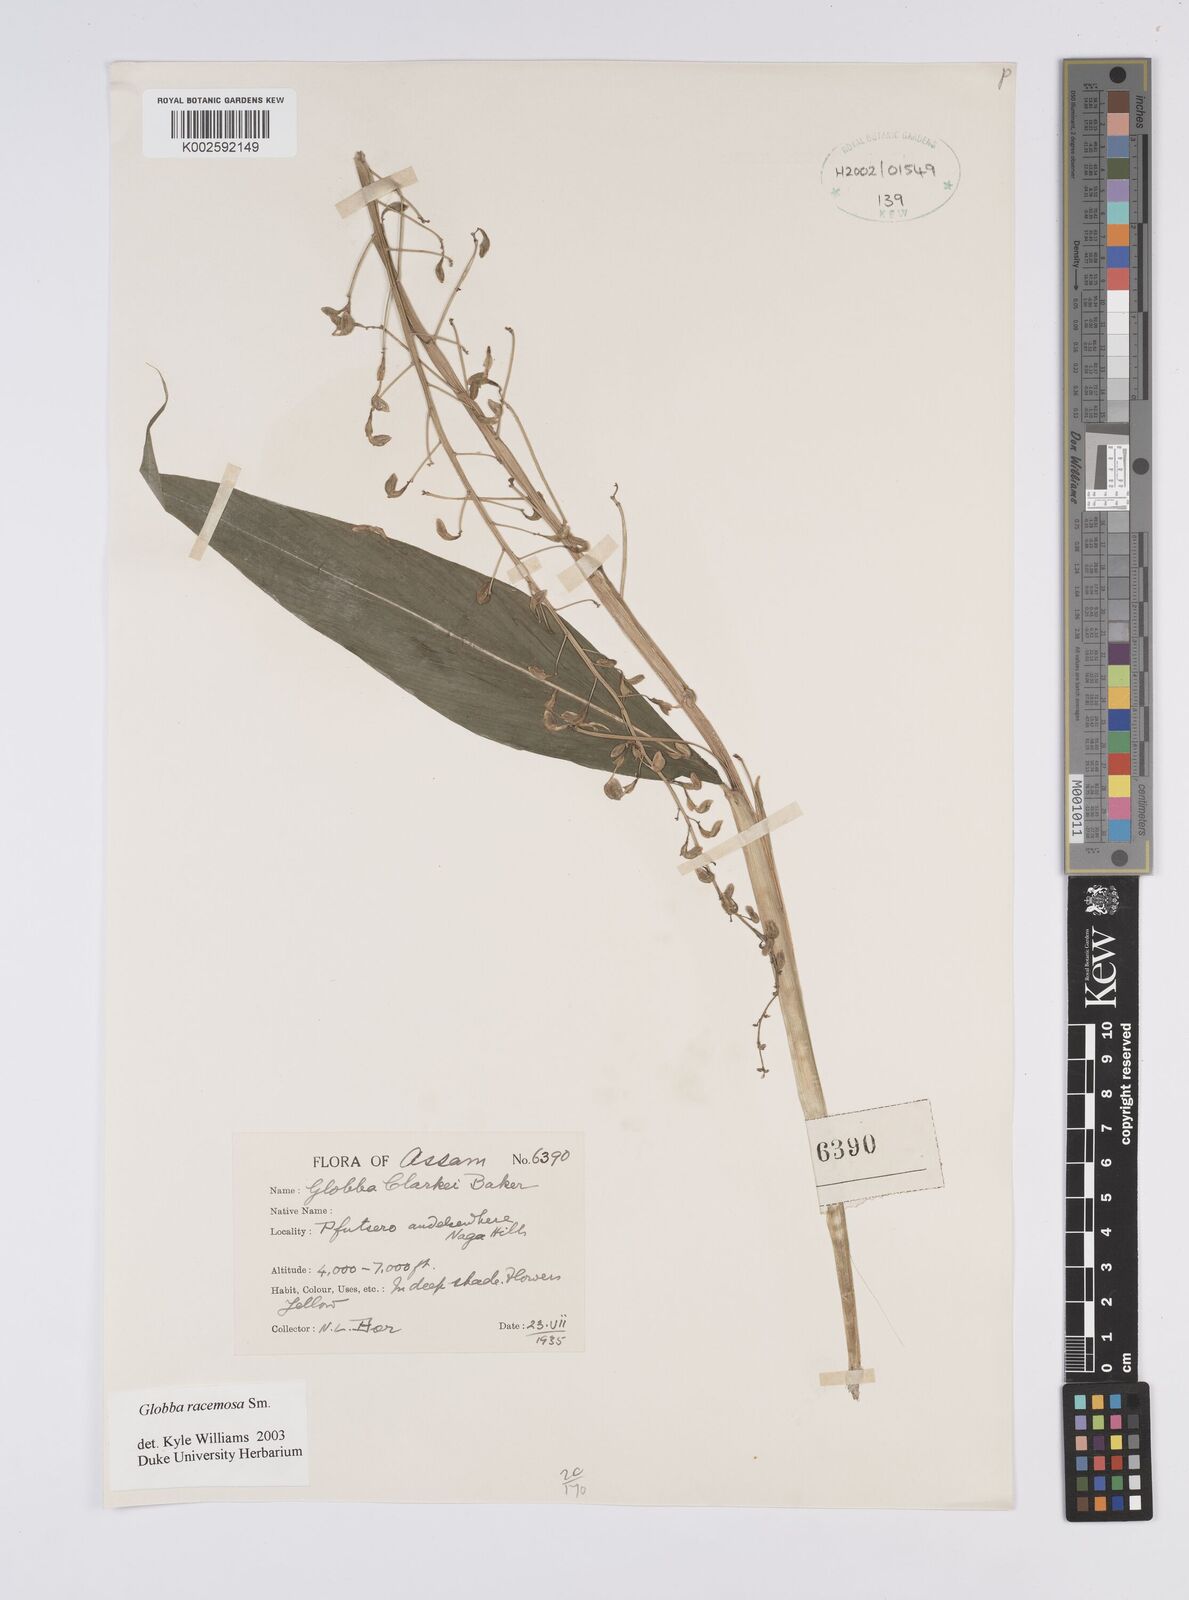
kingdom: Plantae
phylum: Tracheophyta
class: Liliopsida
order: Zingiberales
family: Zingiberaceae
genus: Globba
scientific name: Globba racemosa
